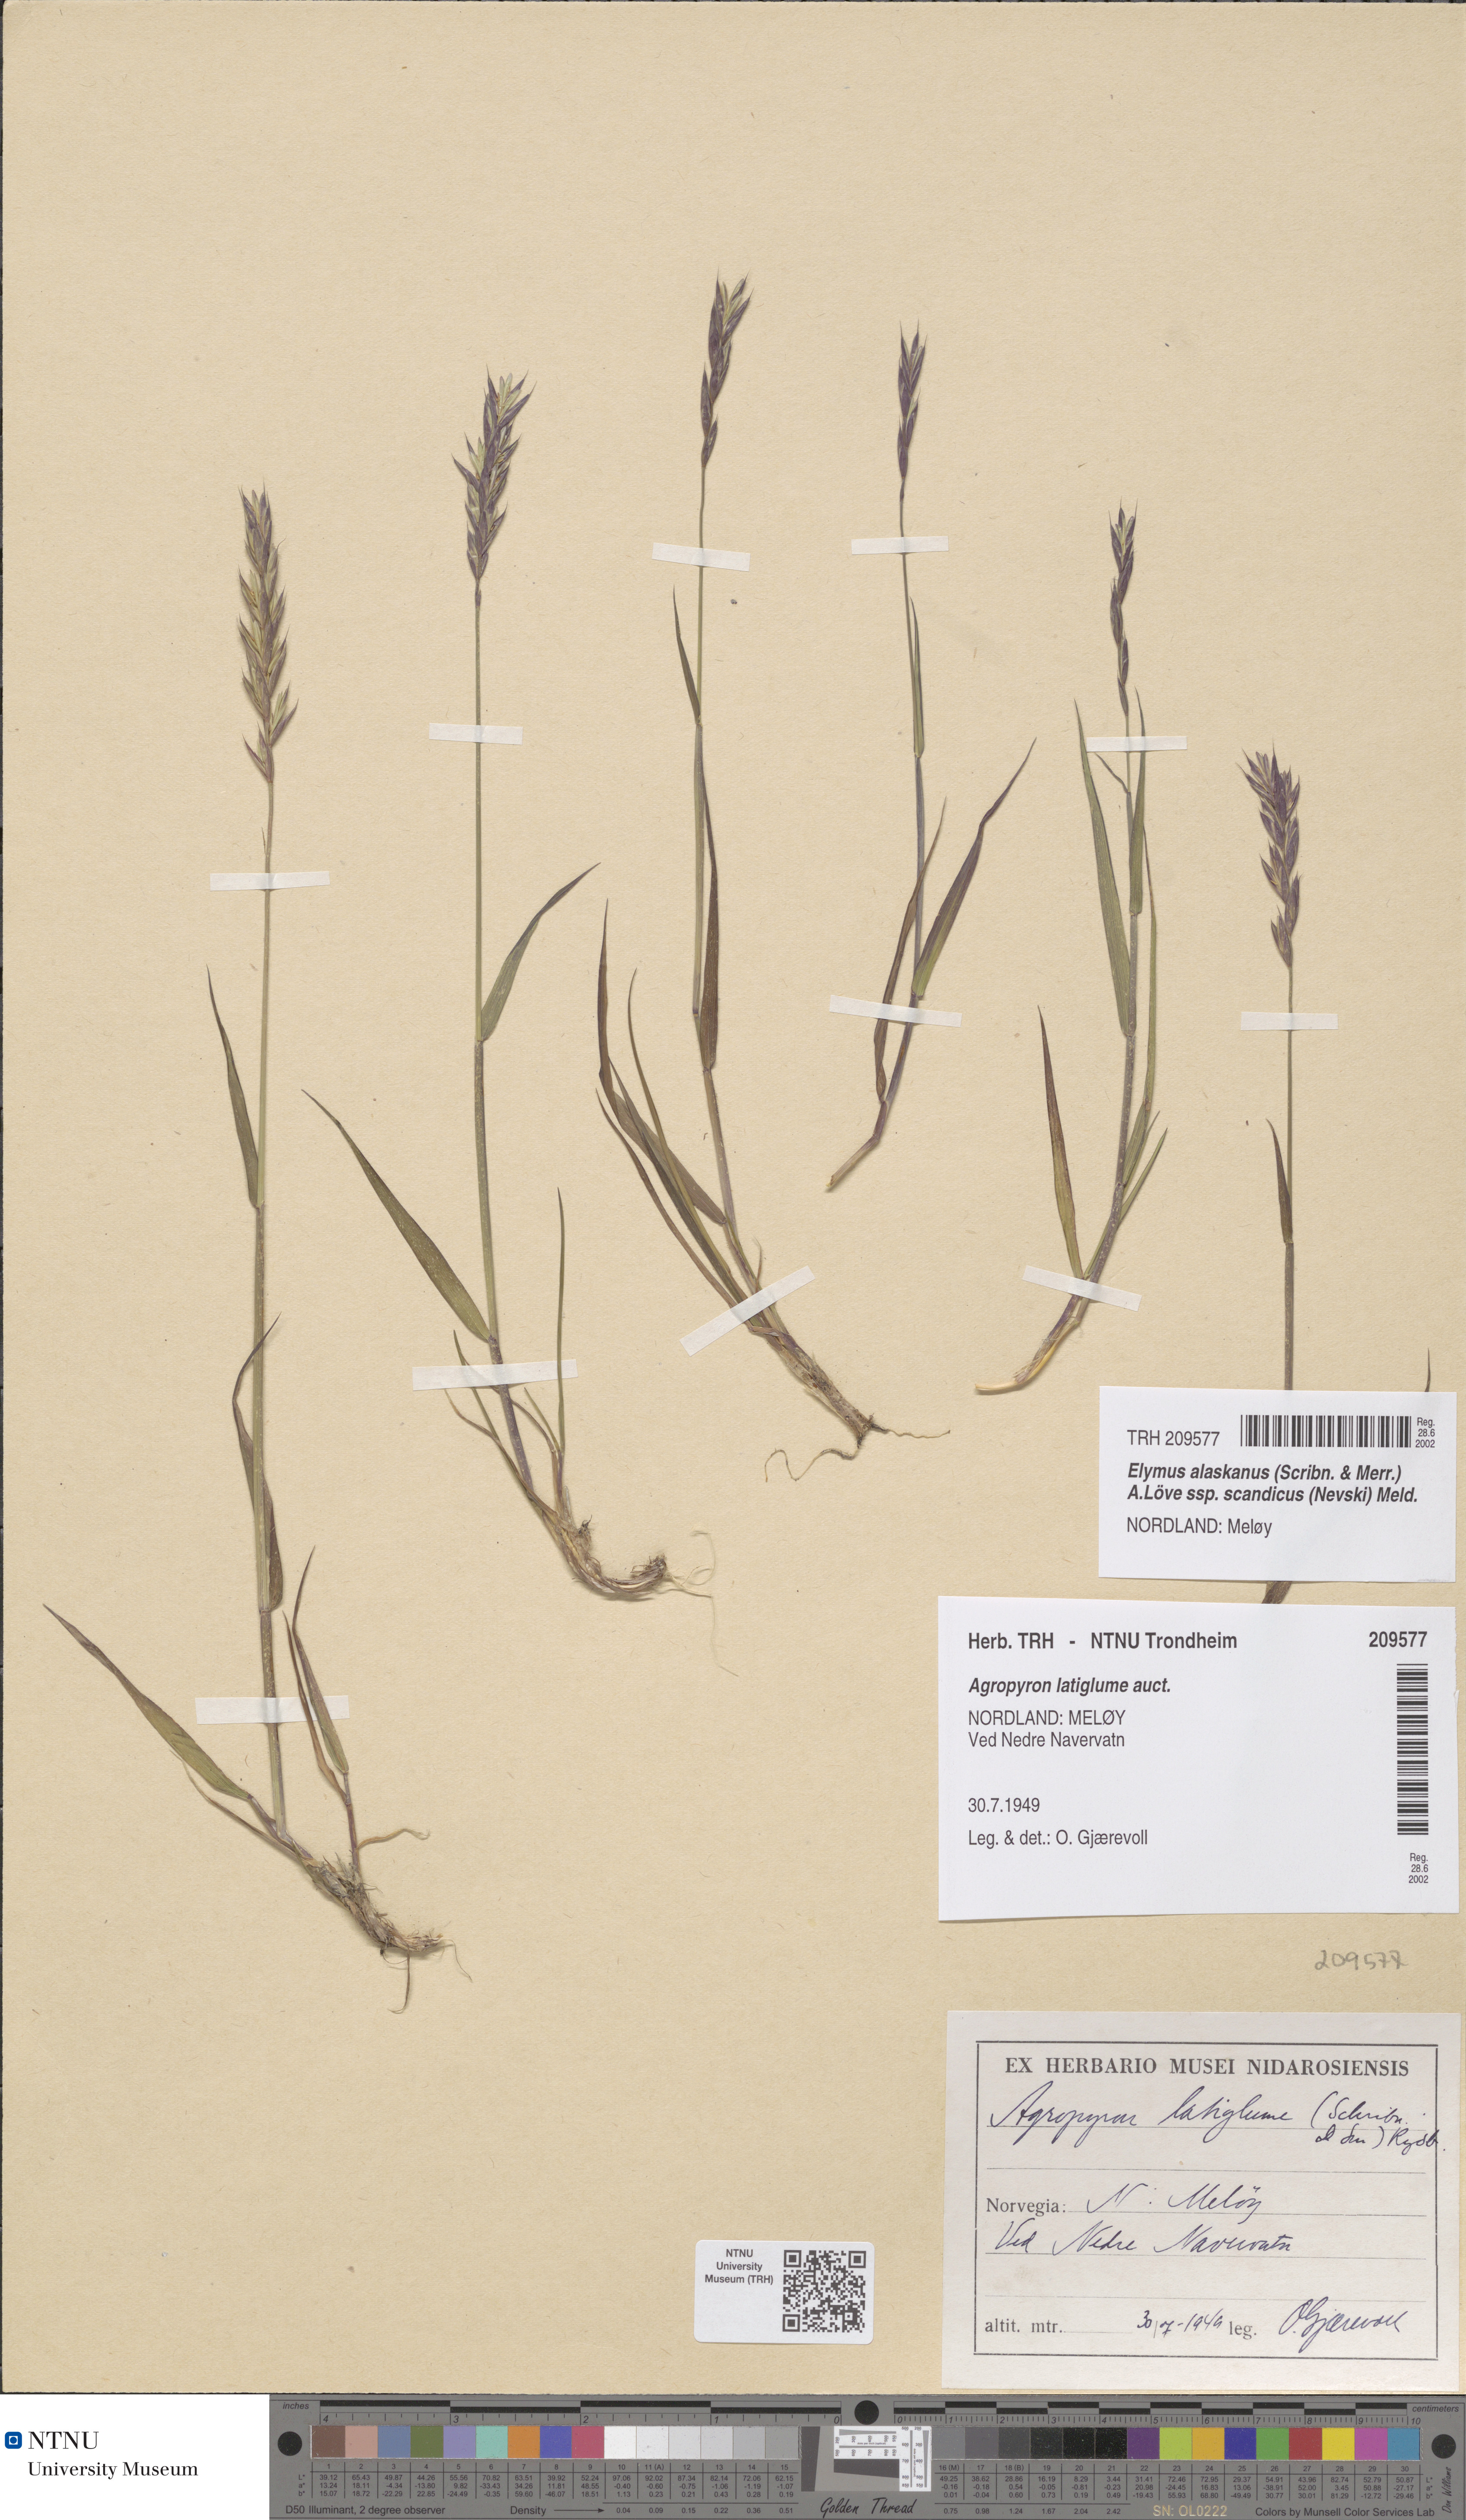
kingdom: Plantae
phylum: Tracheophyta
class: Liliopsida
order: Poales
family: Poaceae
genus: Elymus
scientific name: Elymus macrourus
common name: Northern wheatgrass
